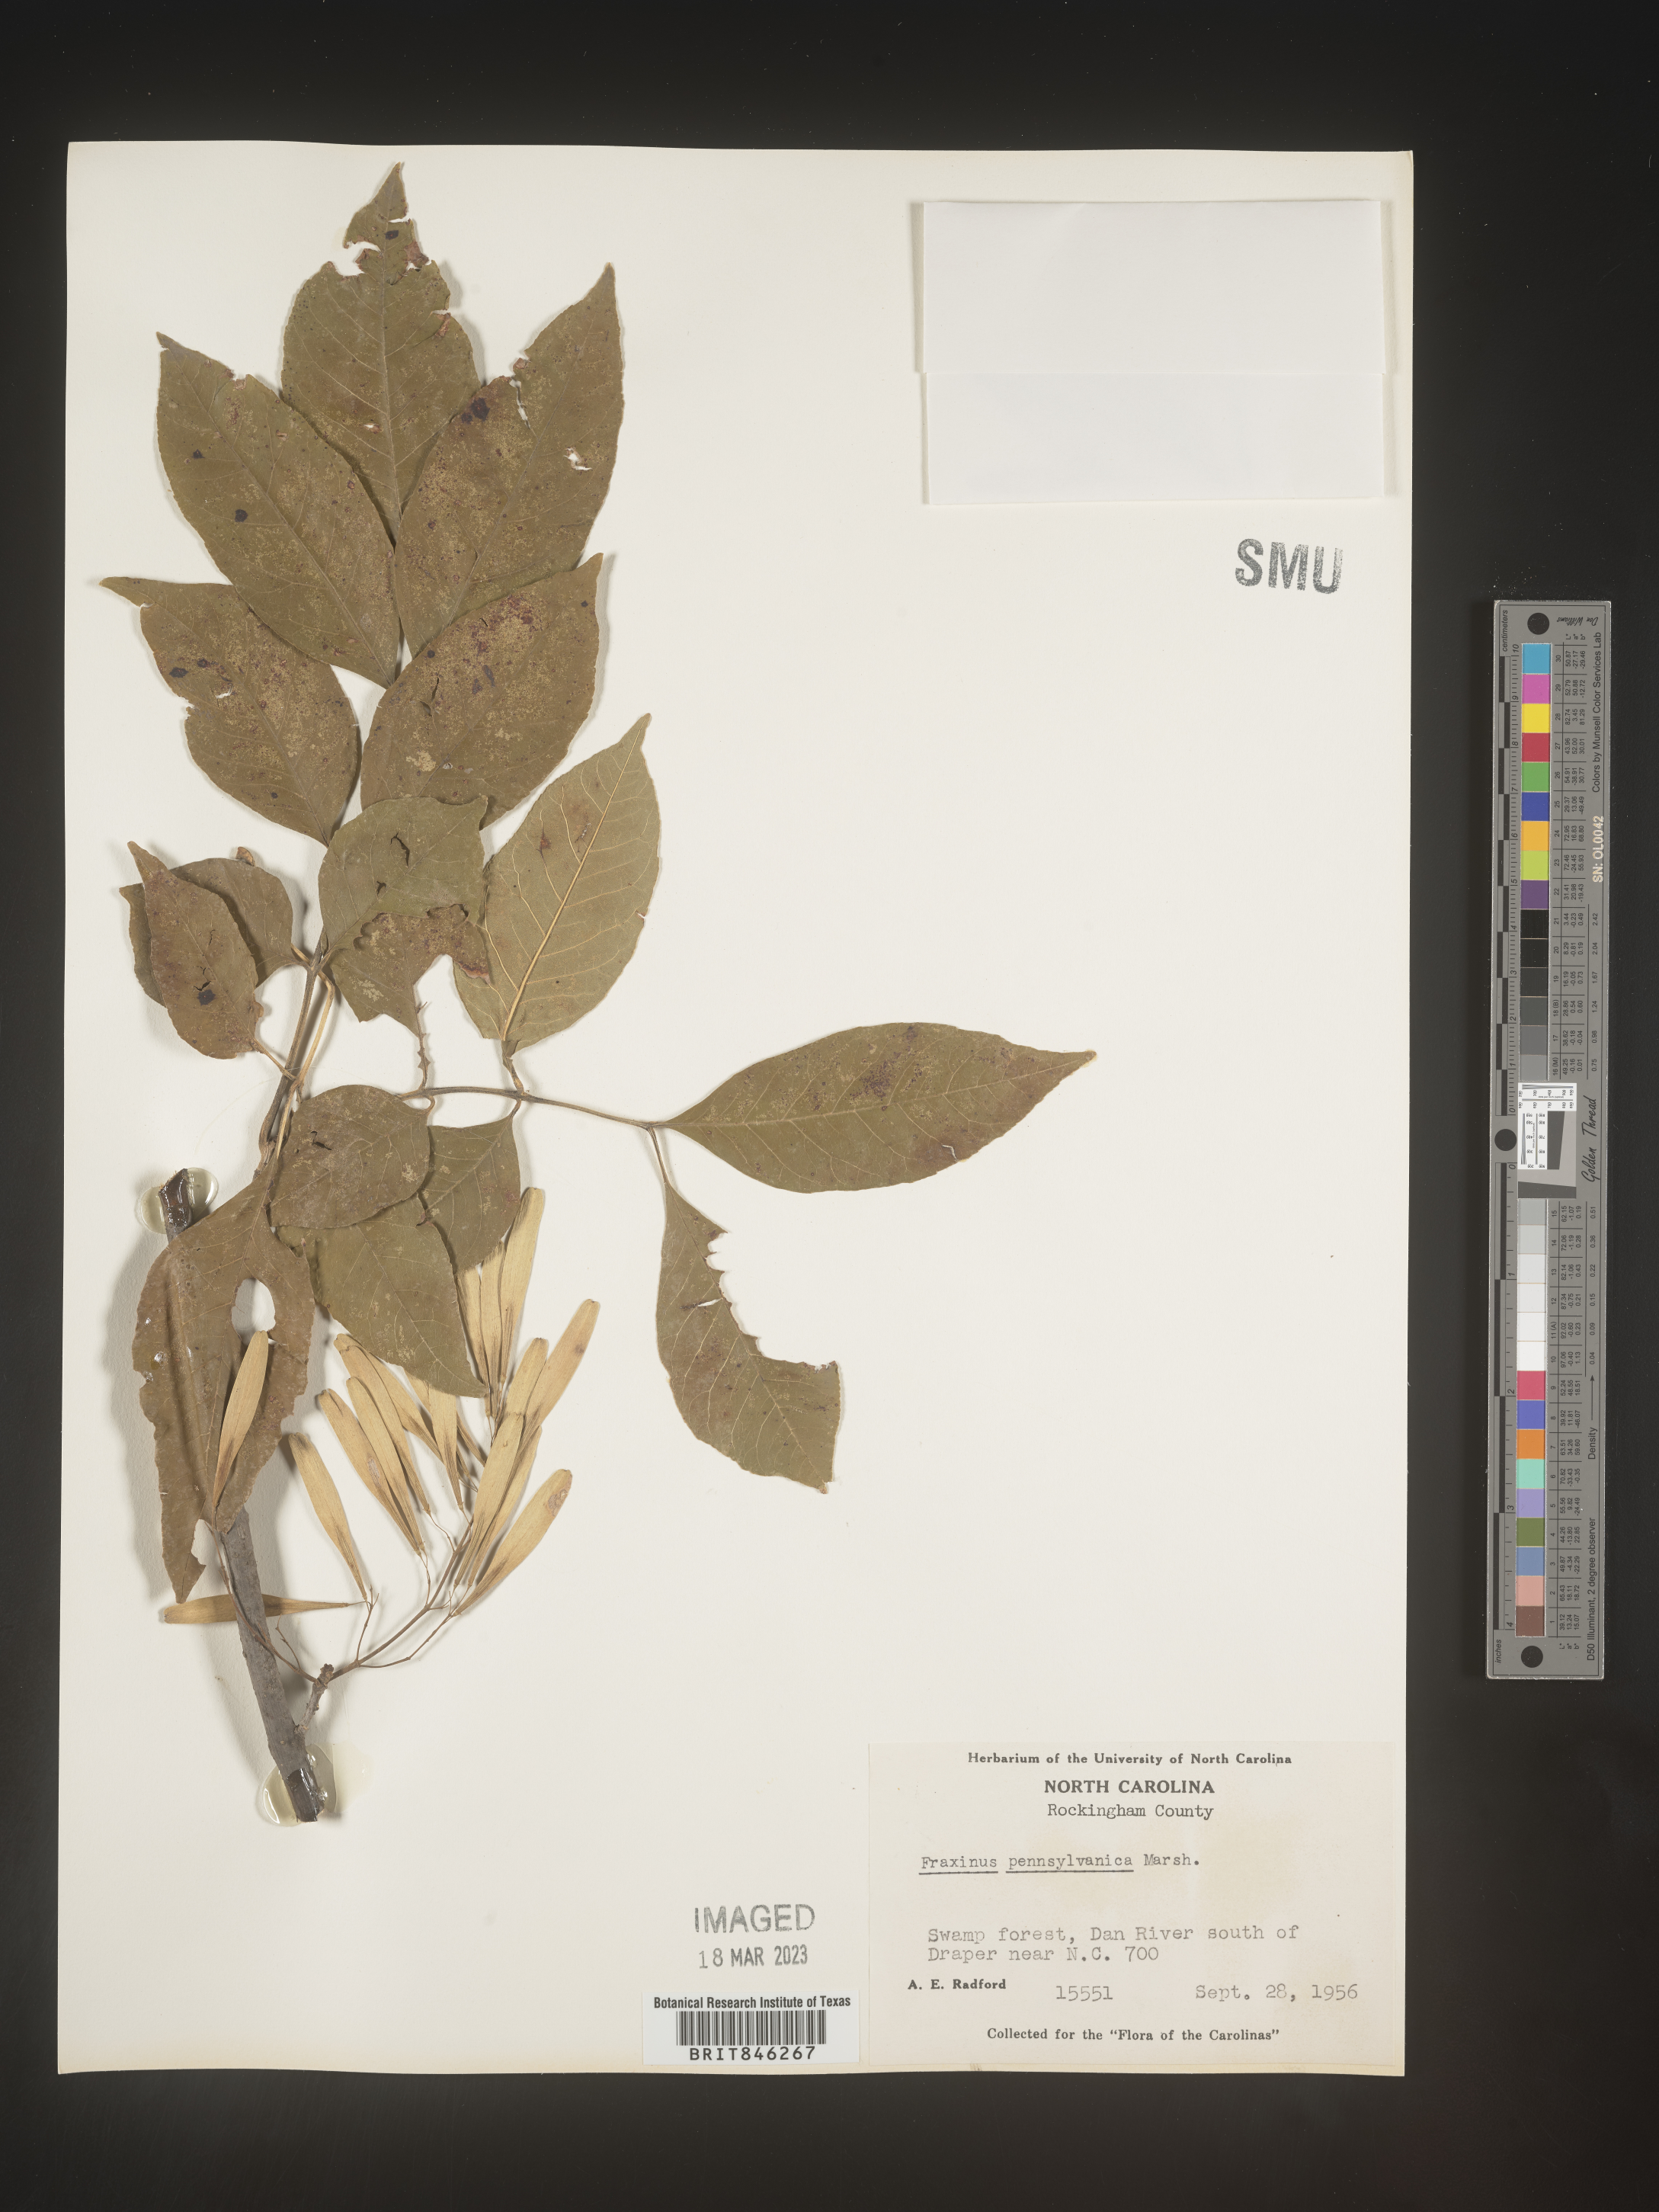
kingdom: Plantae
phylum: Tracheophyta
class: Magnoliopsida
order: Lamiales
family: Oleaceae
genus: Fraxinus
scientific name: Fraxinus pennsylvanica
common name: Green ash
